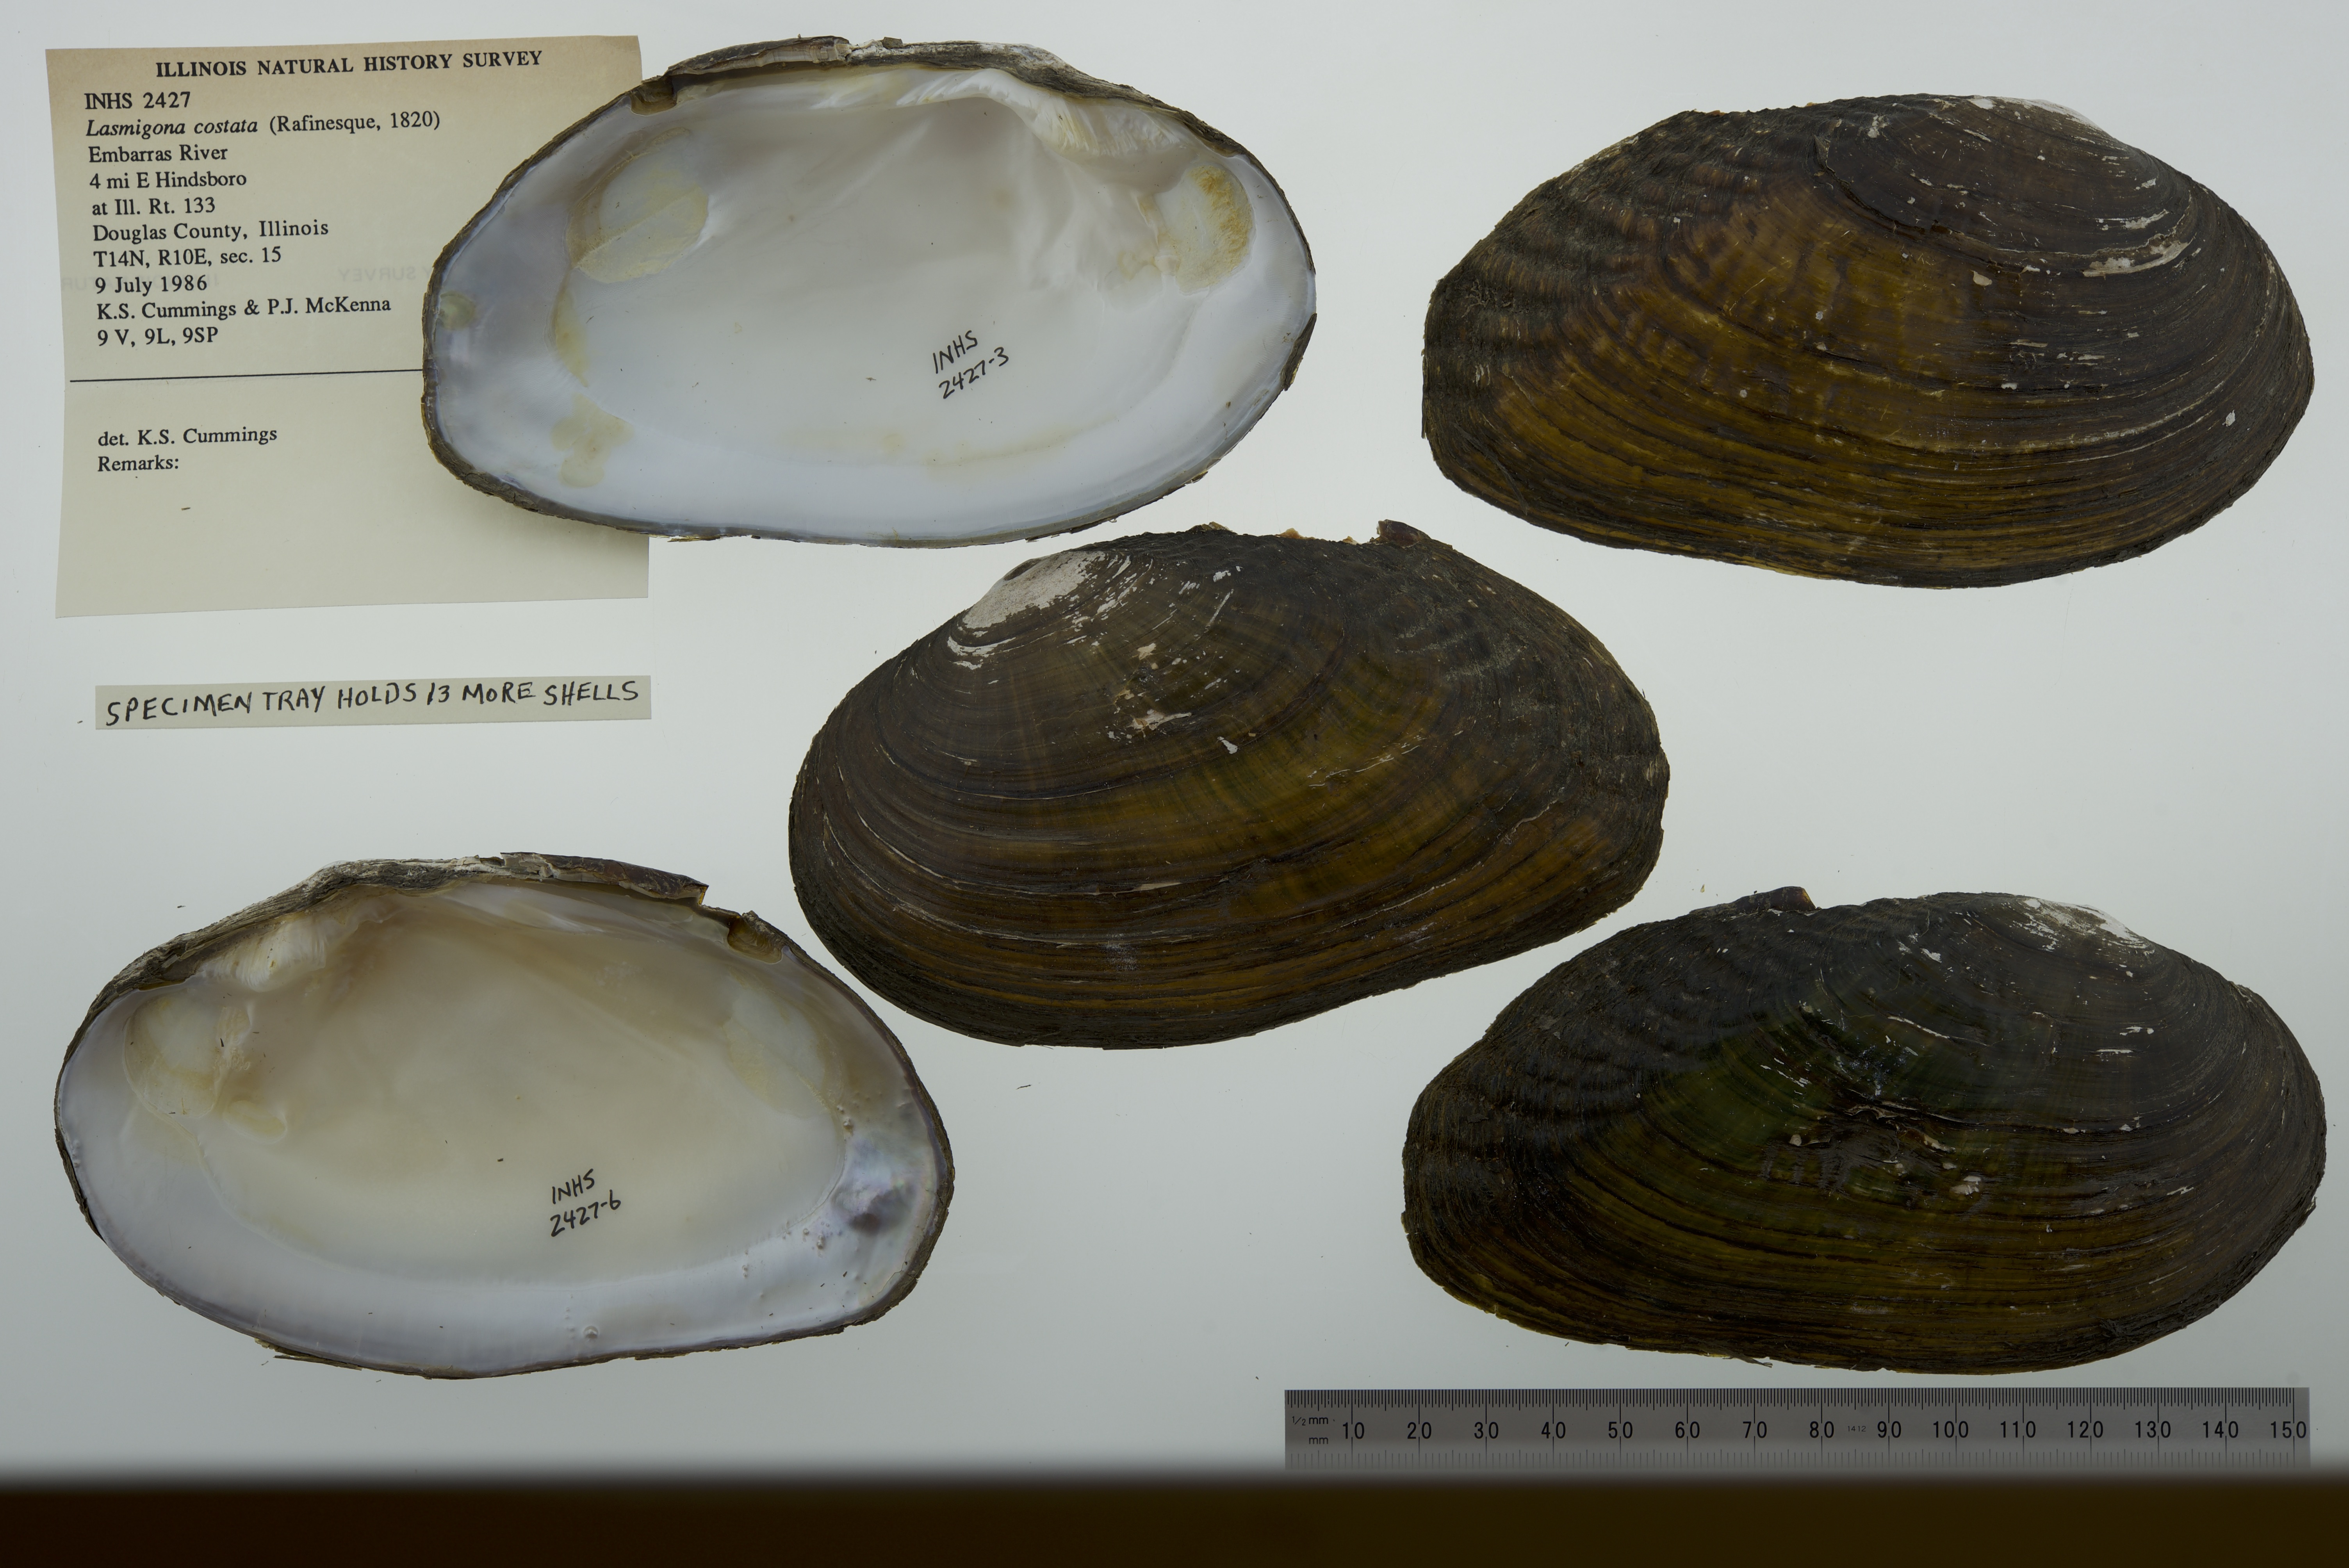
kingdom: Animalia
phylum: Mollusca
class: Bivalvia
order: Unionida
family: Unionidae
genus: Lasmigona
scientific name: Lasmigona costata
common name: Flutedshell
